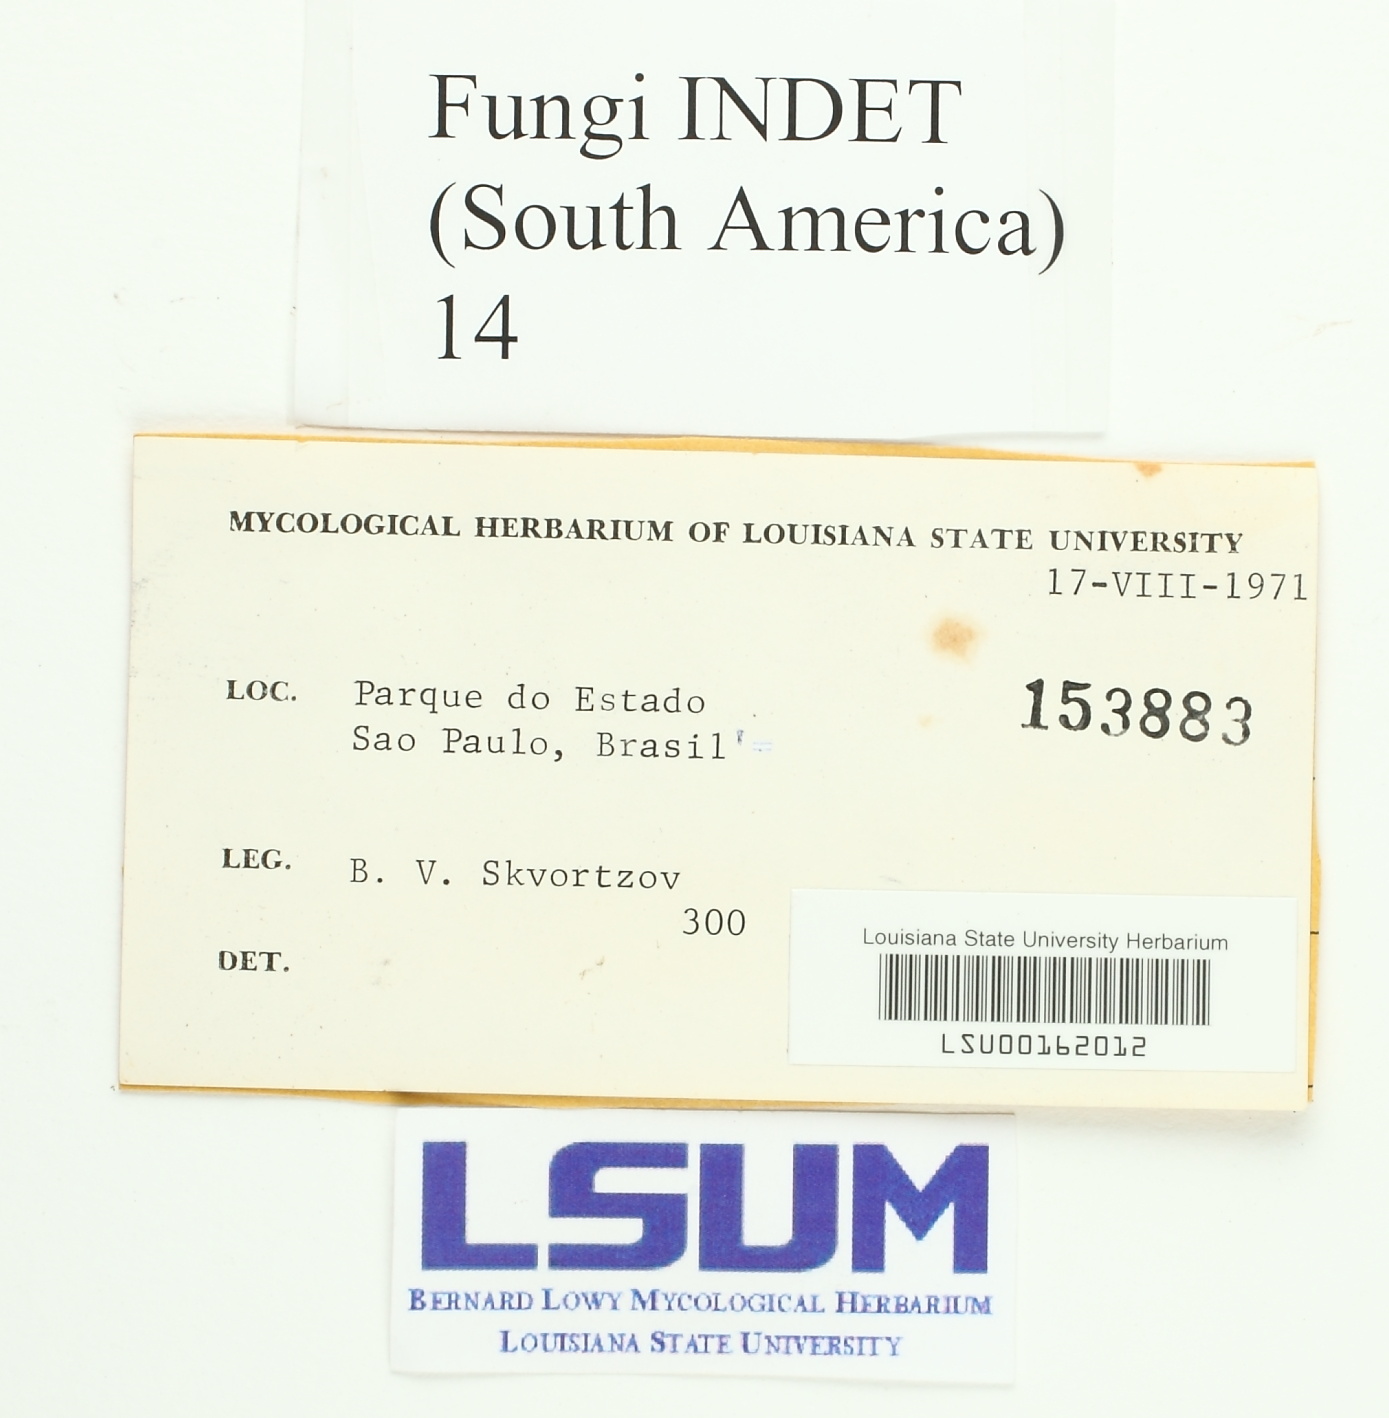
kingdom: Fungi
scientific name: Fungi
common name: Fungi
